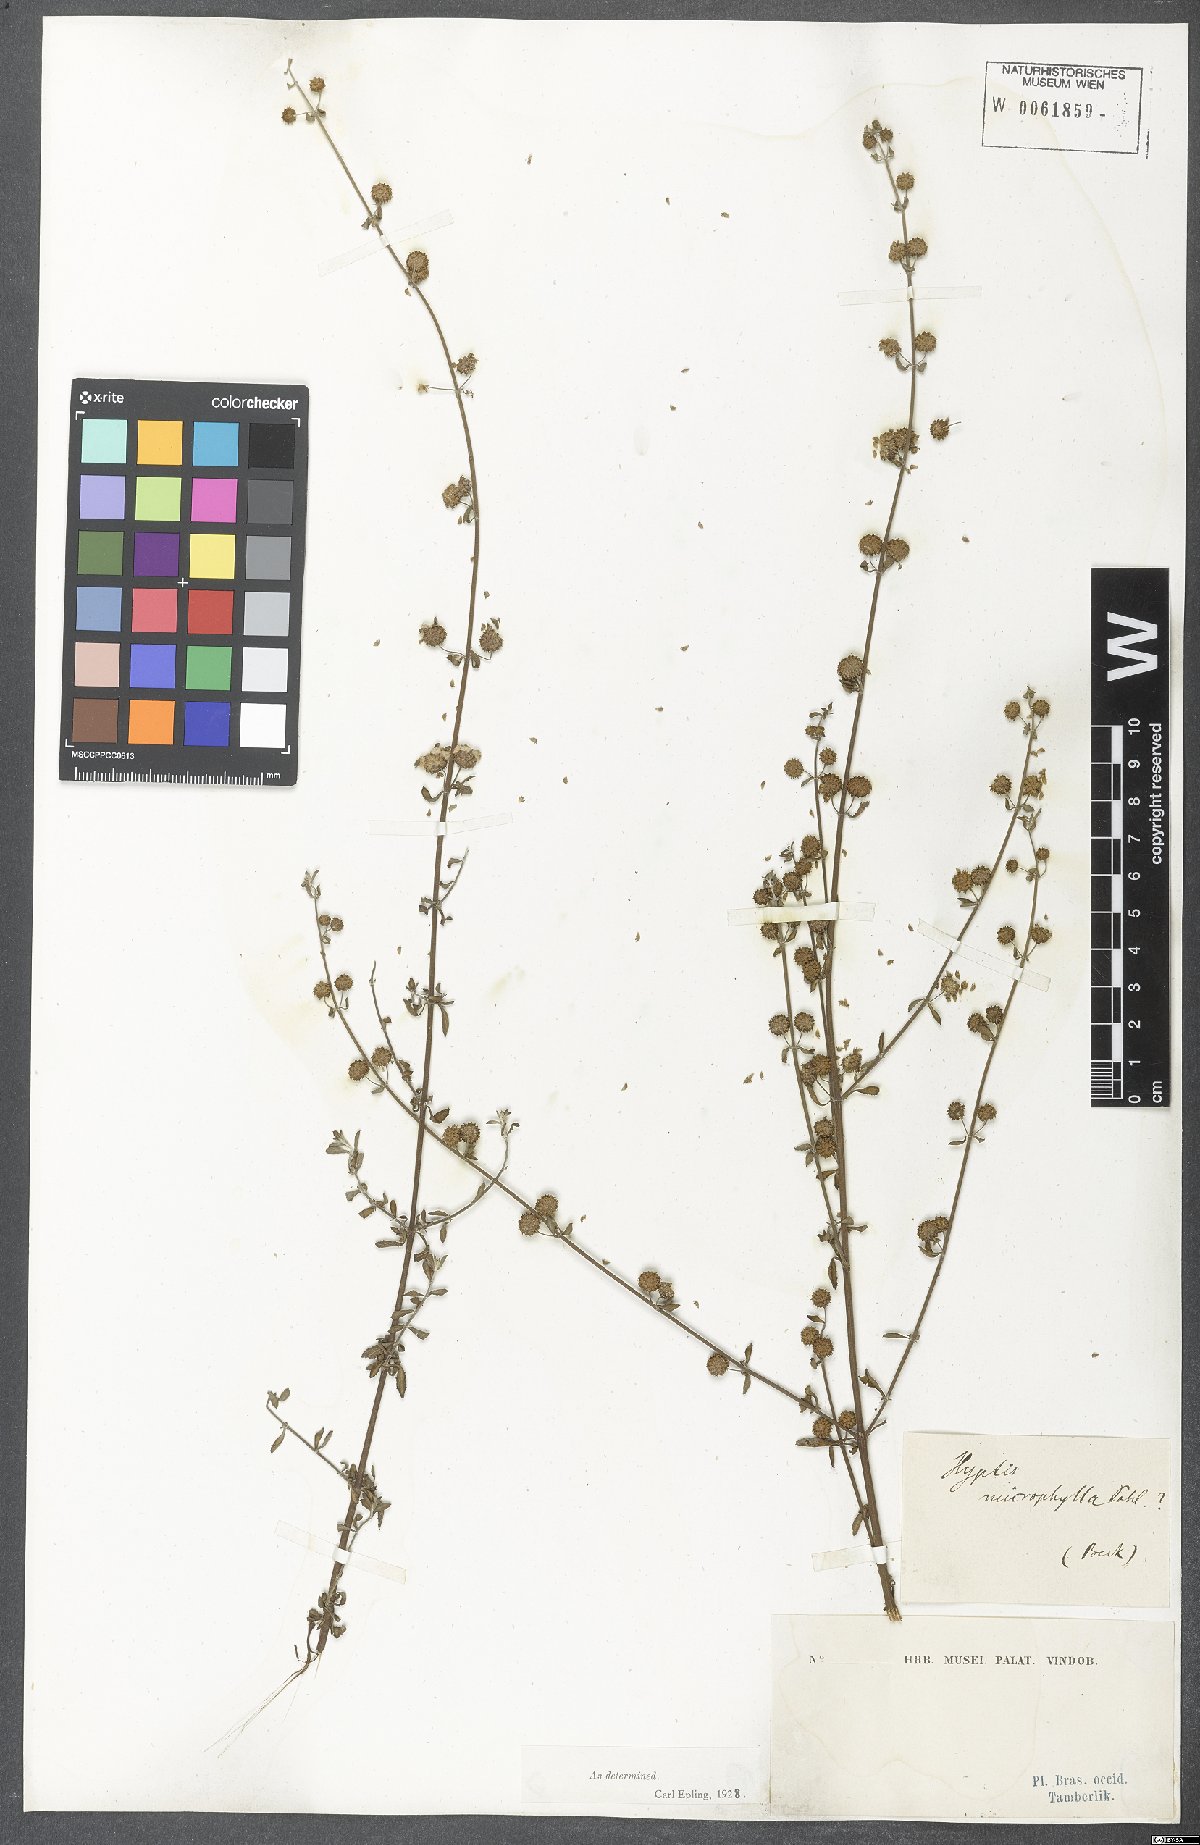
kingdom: Plantae
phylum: Tracheophyta
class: Magnoliopsida
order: Lamiales
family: Lamiaceae
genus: Hyptis
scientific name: Hyptis microphylla
